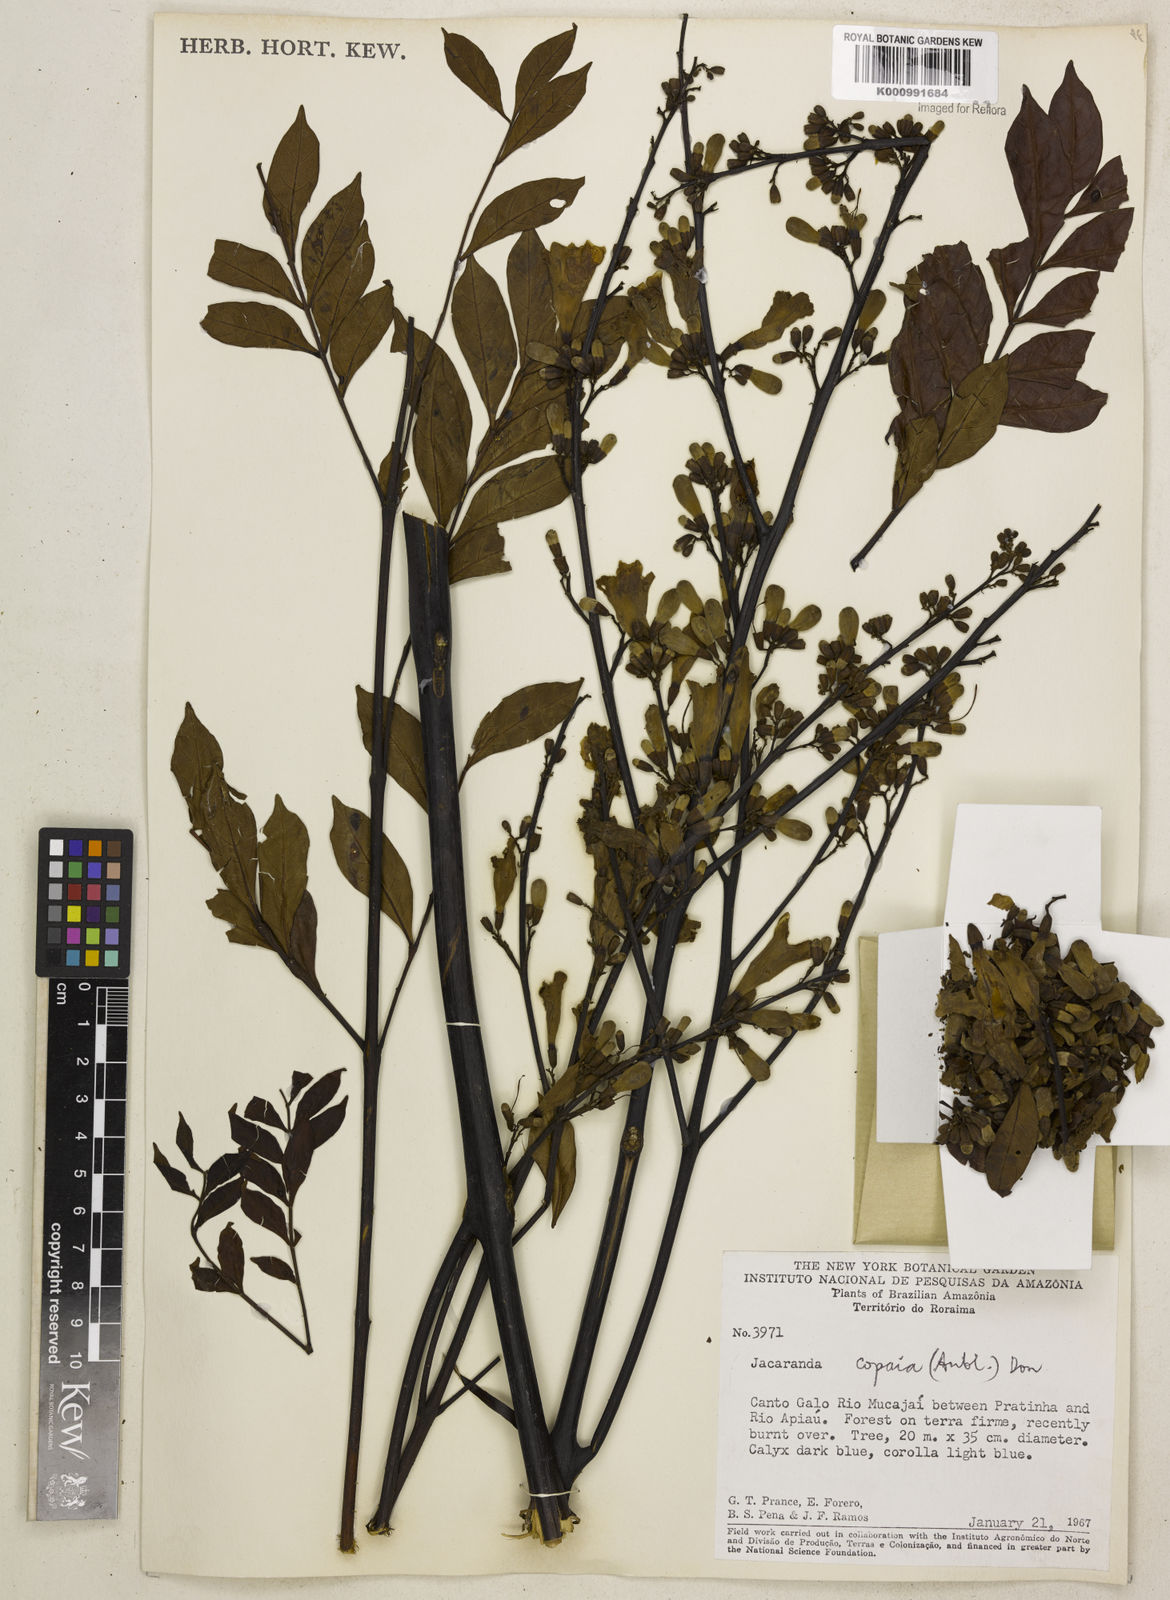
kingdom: Plantae
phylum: Tracheophyta
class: Magnoliopsida
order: Lamiales
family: Bignoniaceae
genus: Jacaranda
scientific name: Jacaranda
